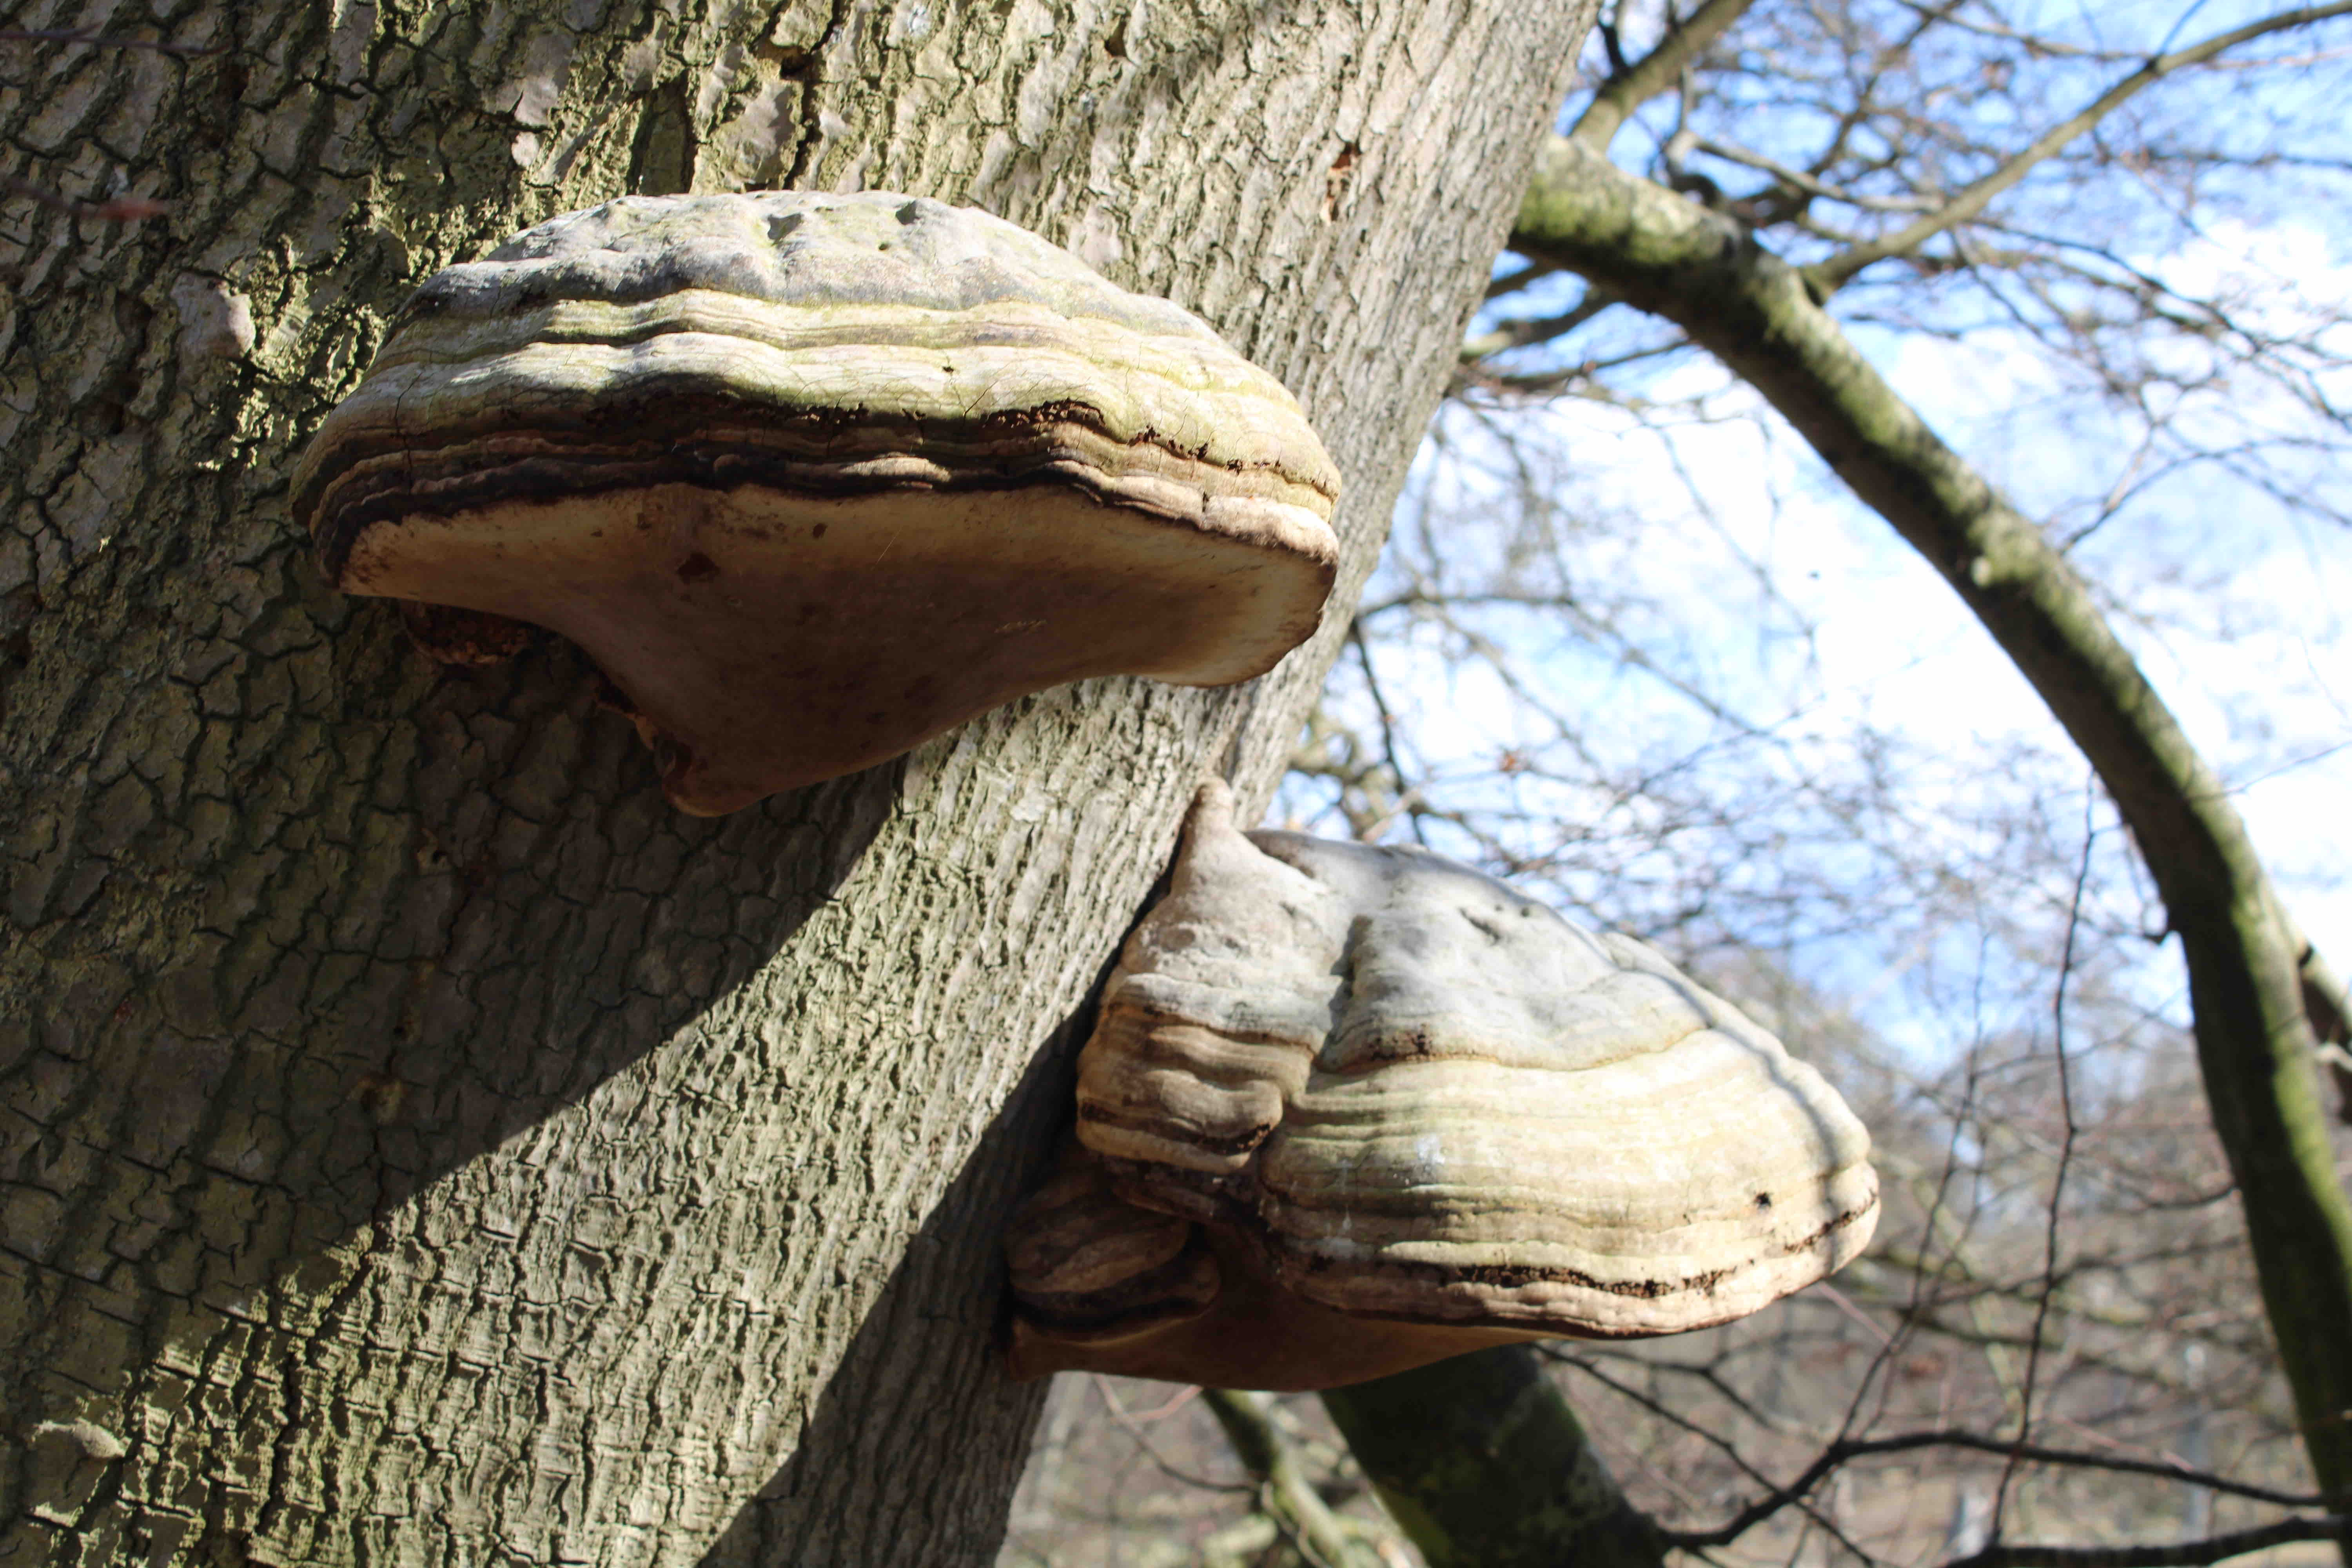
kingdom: Fungi
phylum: Basidiomycota
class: Agaricomycetes
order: Polyporales
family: Polyporaceae
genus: Fomes
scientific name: Fomes fomentarius
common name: tøndersvamp
